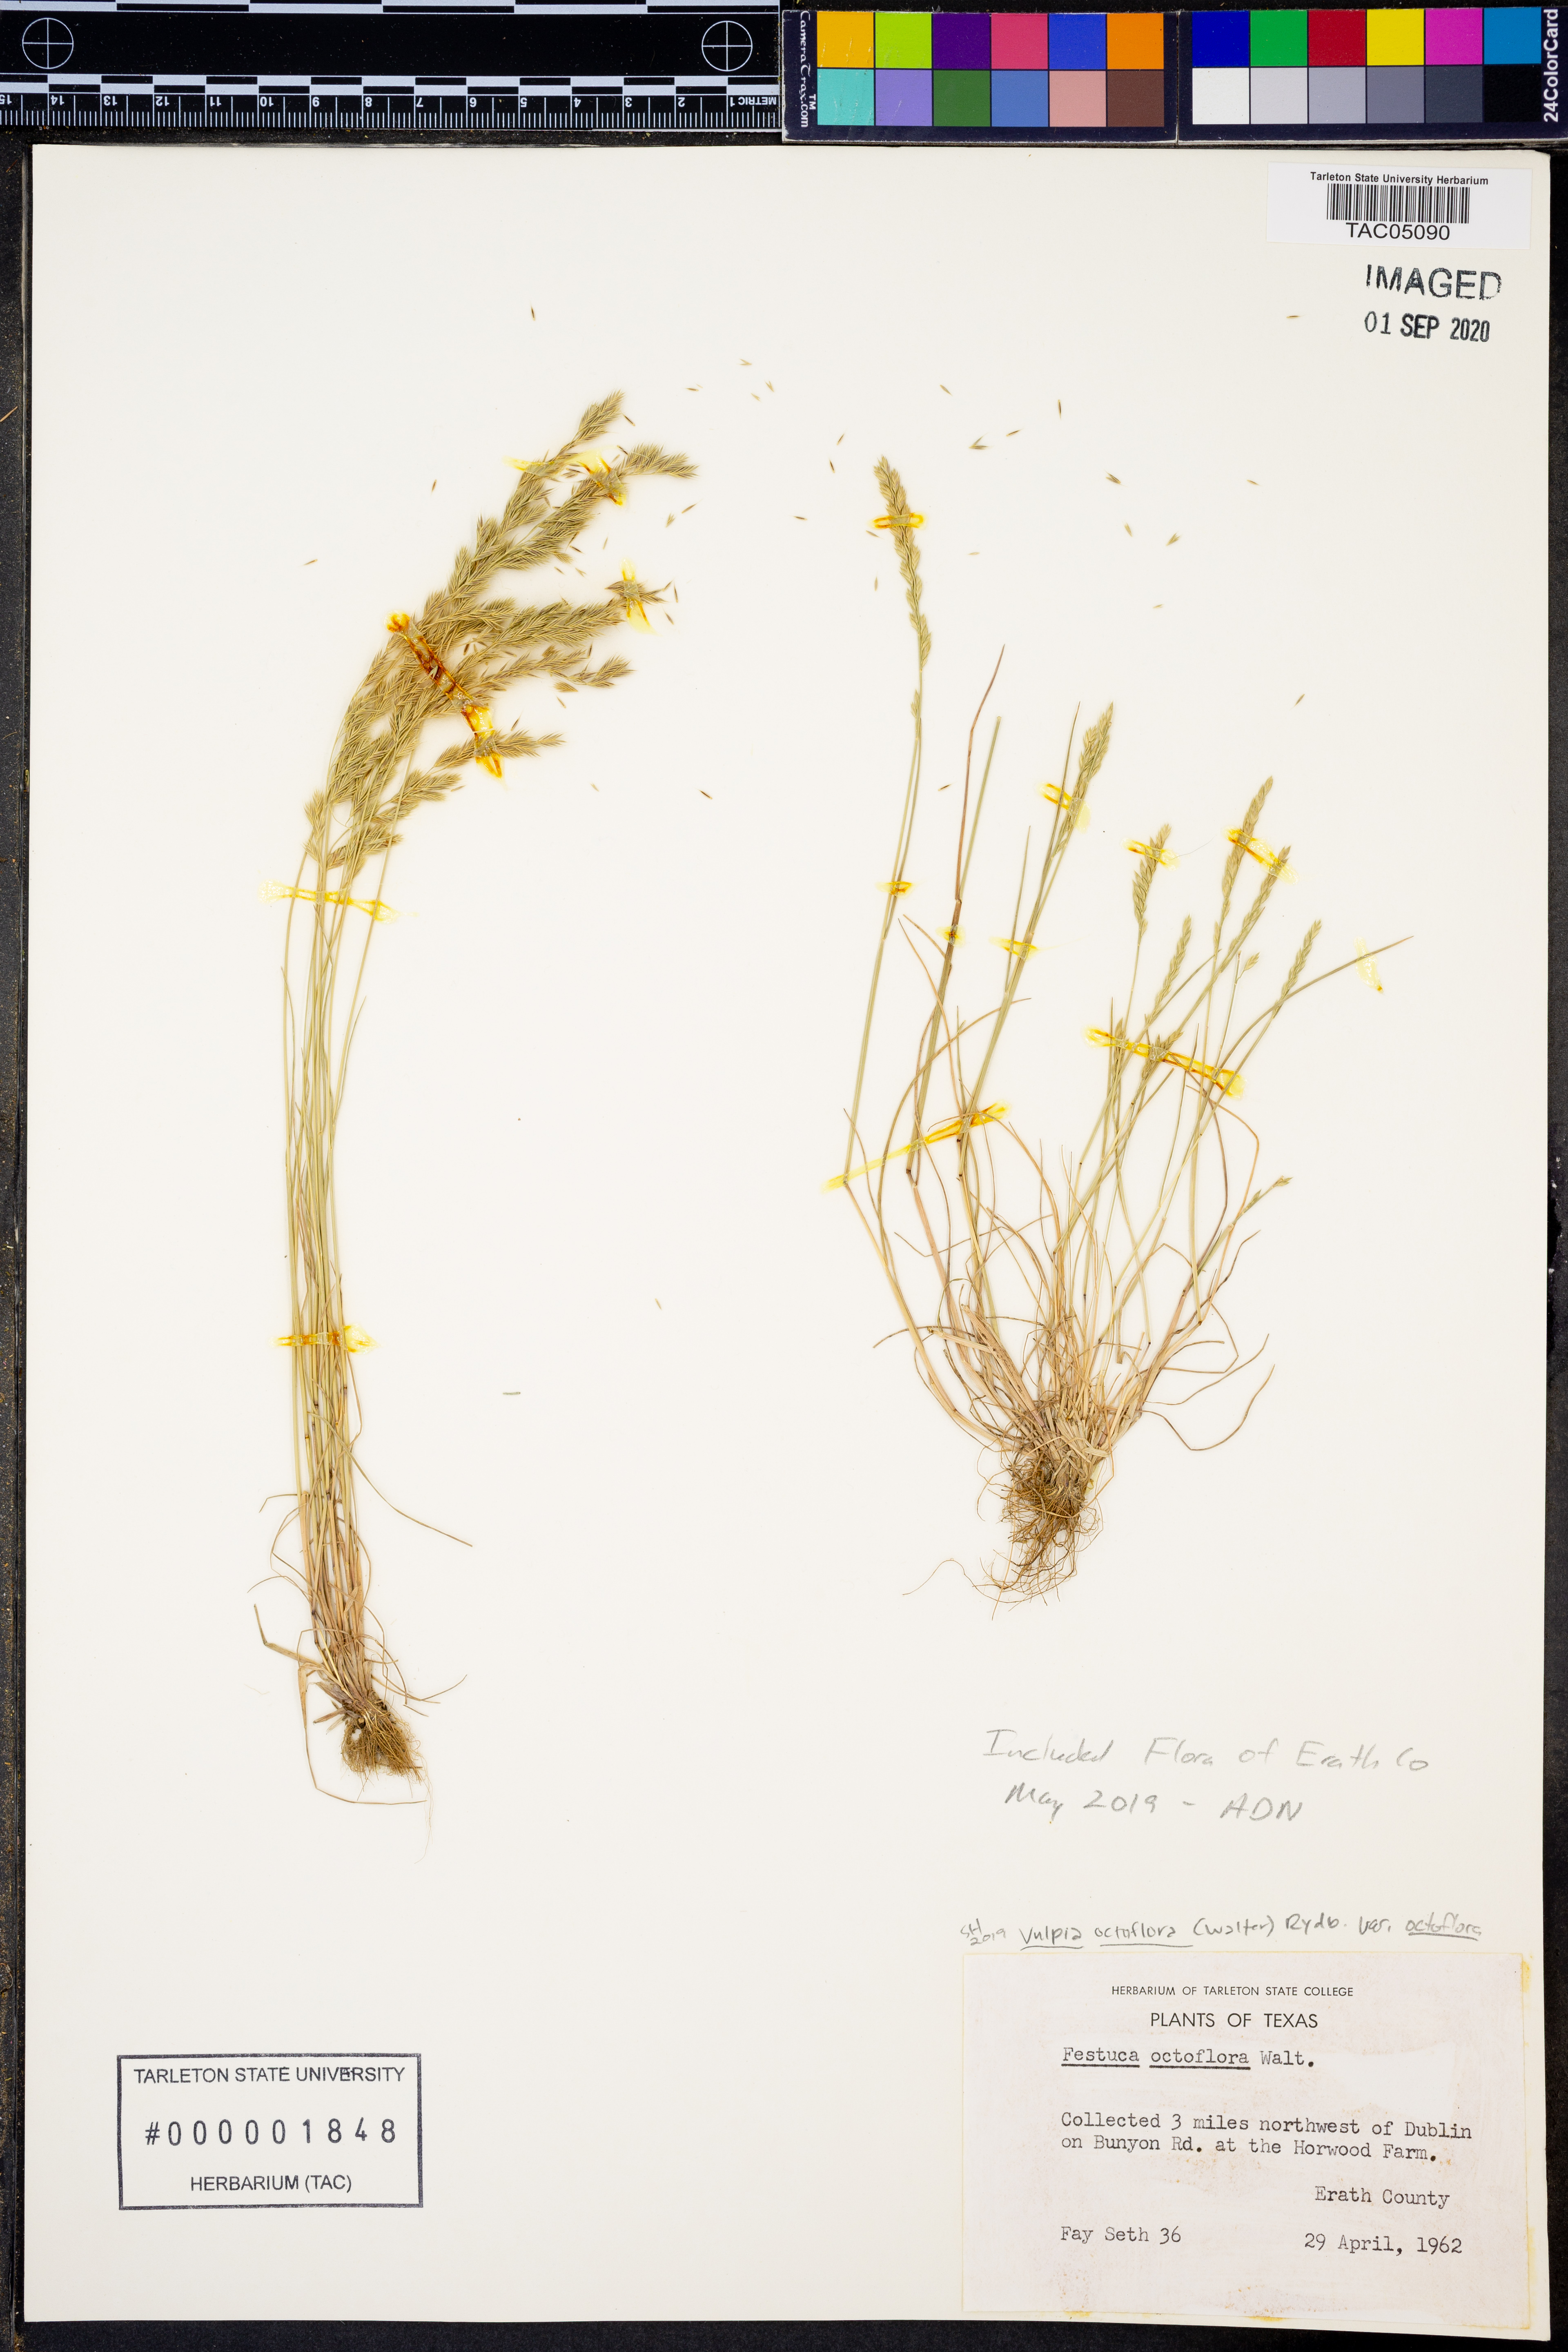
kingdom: Plantae
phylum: Tracheophyta
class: Liliopsida
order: Poales
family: Poaceae
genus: Festuca
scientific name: Festuca octoflora
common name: Sixweeks grass
